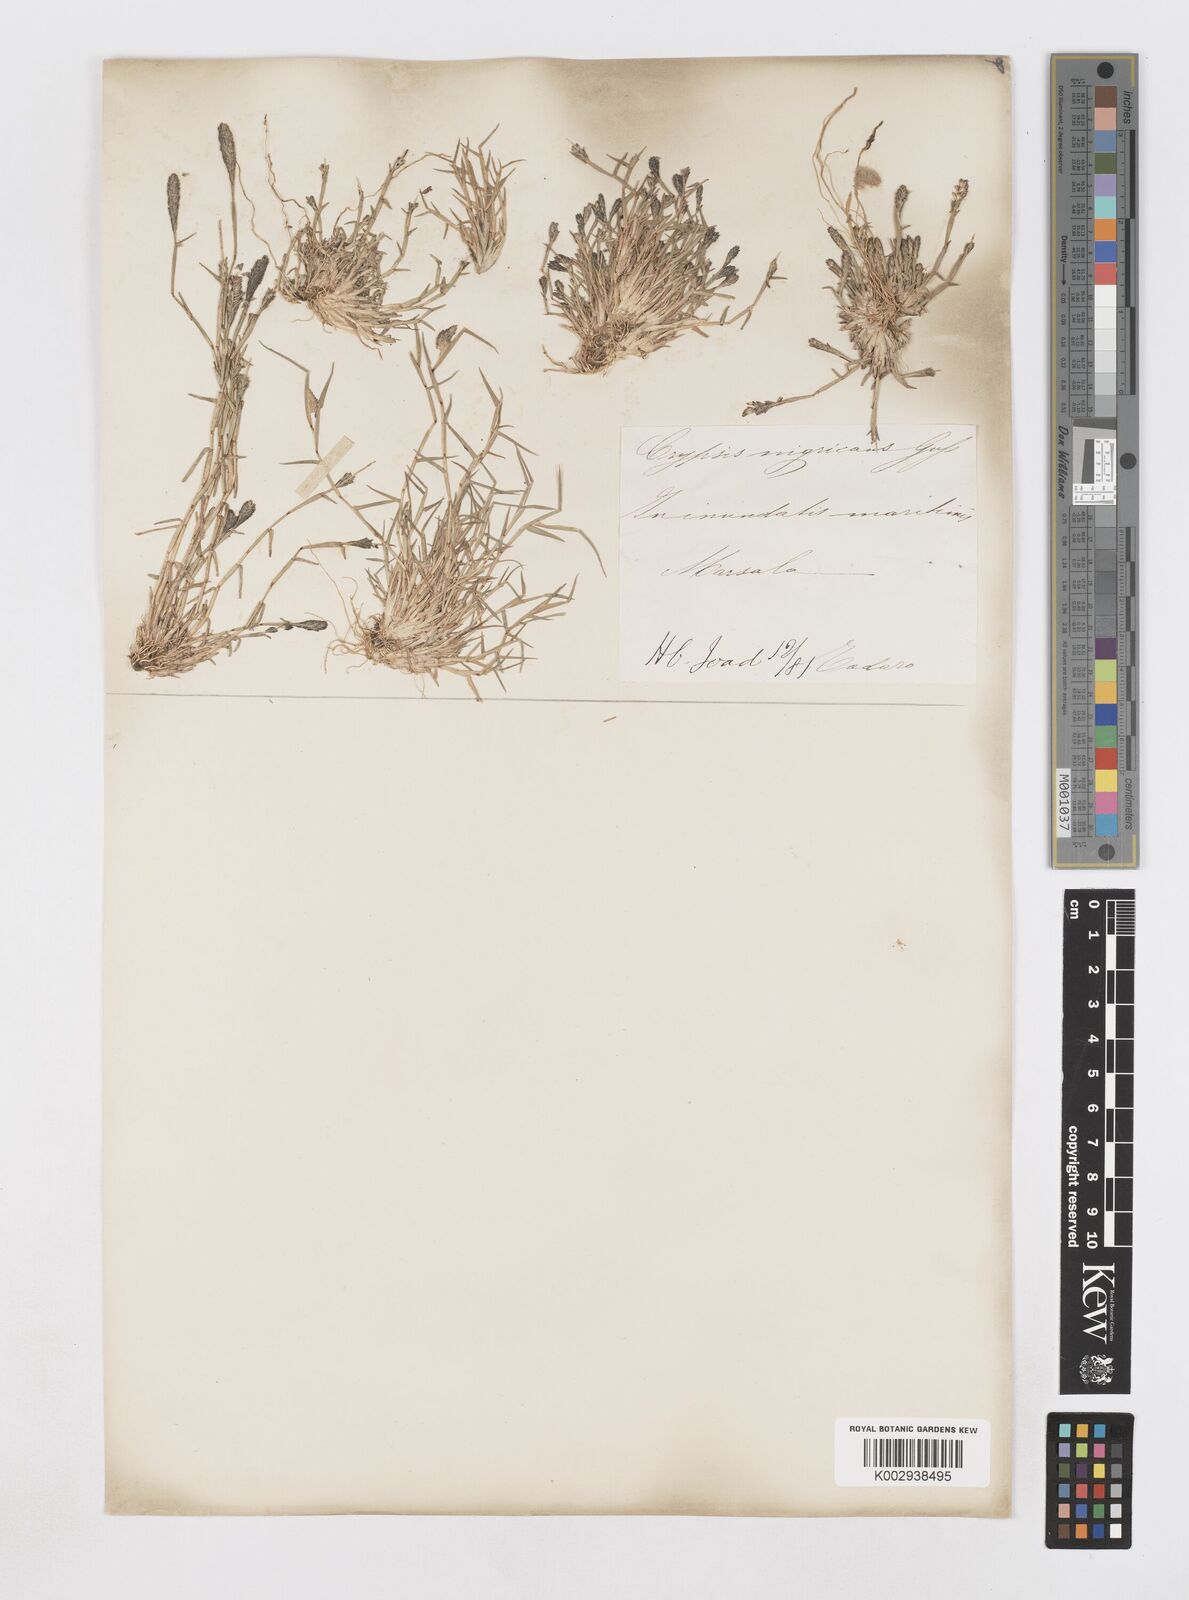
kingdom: Plantae
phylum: Tracheophyta
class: Liliopsida
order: Poales
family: Poaceae
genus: Sporobolus
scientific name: Sporobolus alopecuroides
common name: Foxtail pricklegrass
